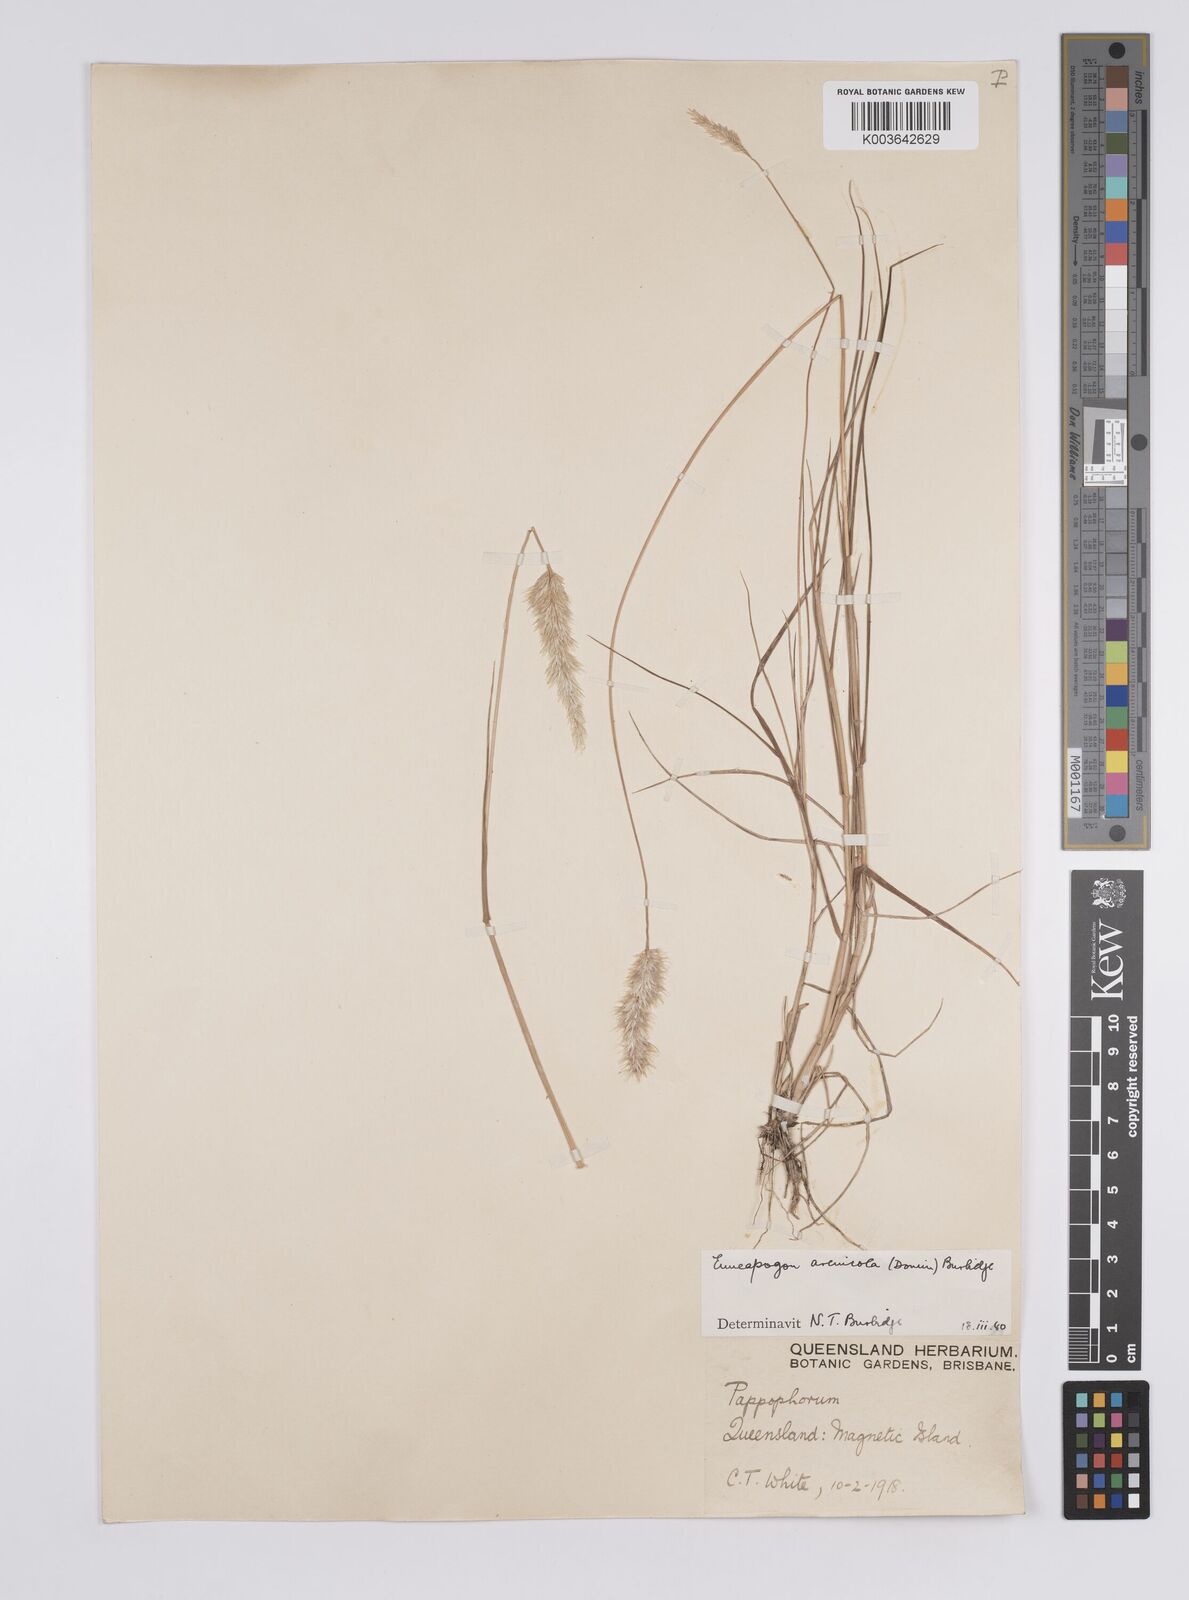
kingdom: Plantae
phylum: Tracheophyta
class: Liliopsida
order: Poales
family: Poaceae
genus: Enneapogon
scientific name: Enneapogon nigricans
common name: Pappus grass
